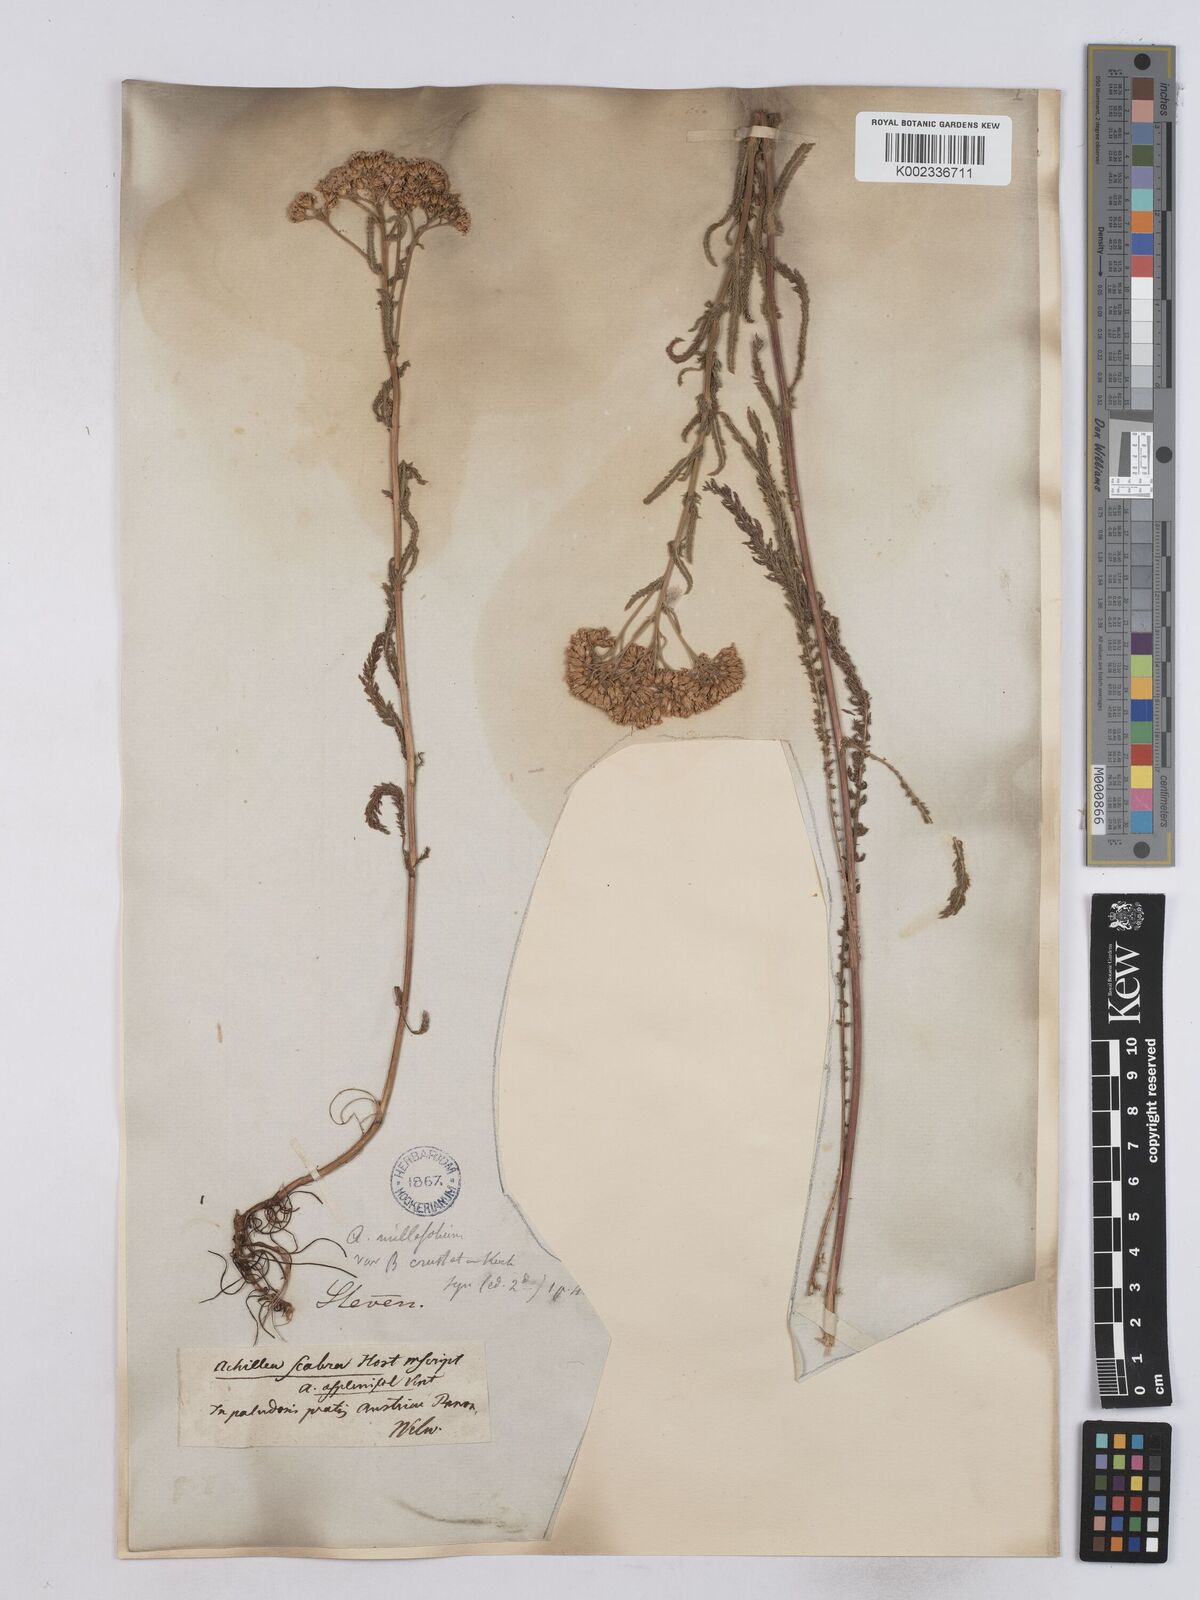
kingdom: Plantae
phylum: Tracheophyta
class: Magnoliopsida
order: Asterales
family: Asteraceae
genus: Achillea
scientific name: Achillea aspleniifolia
